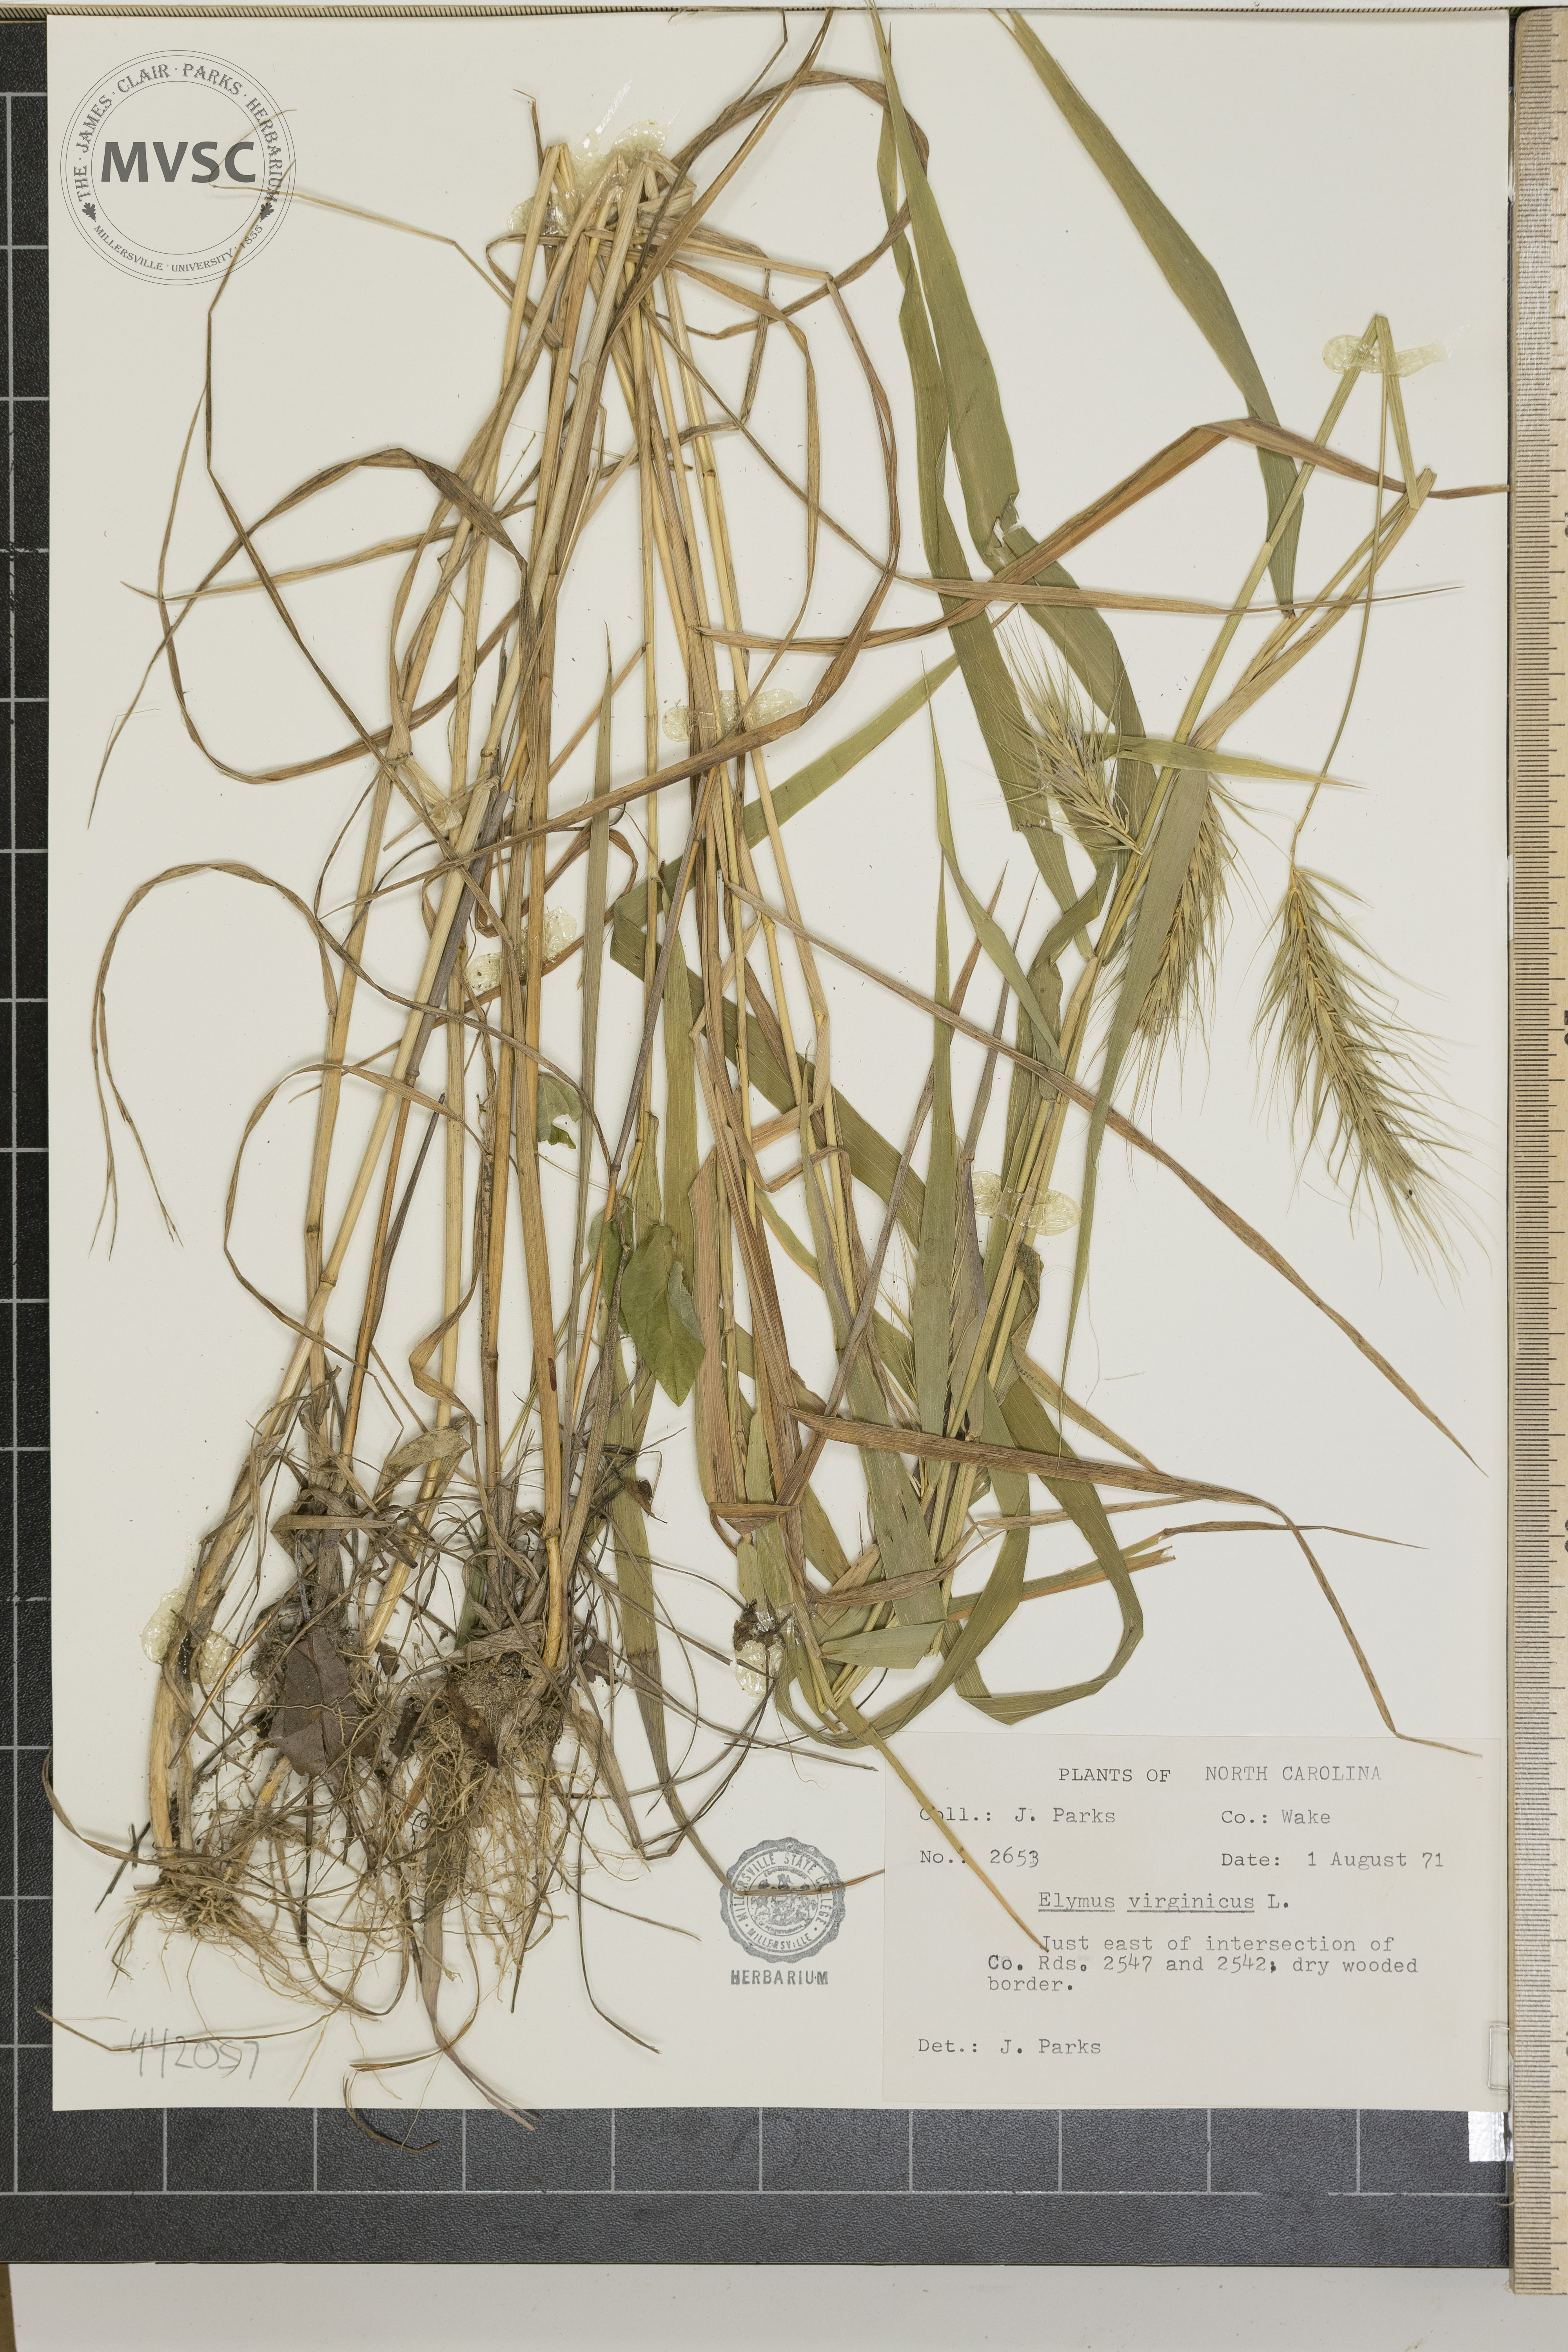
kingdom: Plantae
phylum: Tracheophyta
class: Liliopsida
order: Poales
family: Poaceae
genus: Elymus
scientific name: Elymus virginicus
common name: Common eastern wildrye
